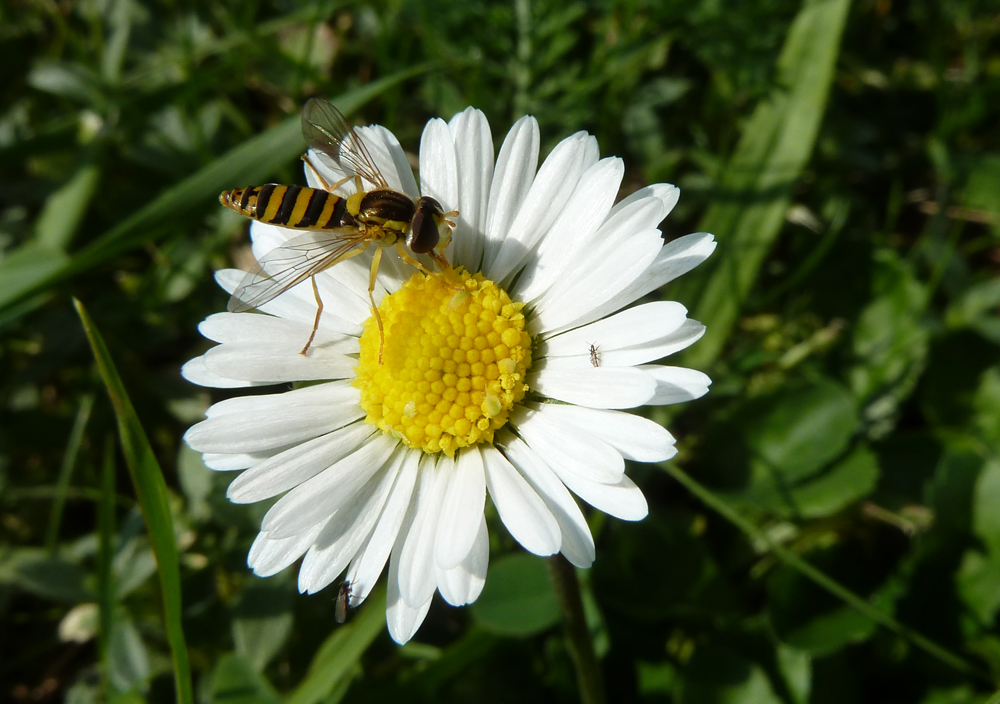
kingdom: Plantae
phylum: Tracheophyta
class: Magnoliopsida
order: Asterales
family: Asteraceae
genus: Bellis
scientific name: Bellis perennis
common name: Lawndaisy
